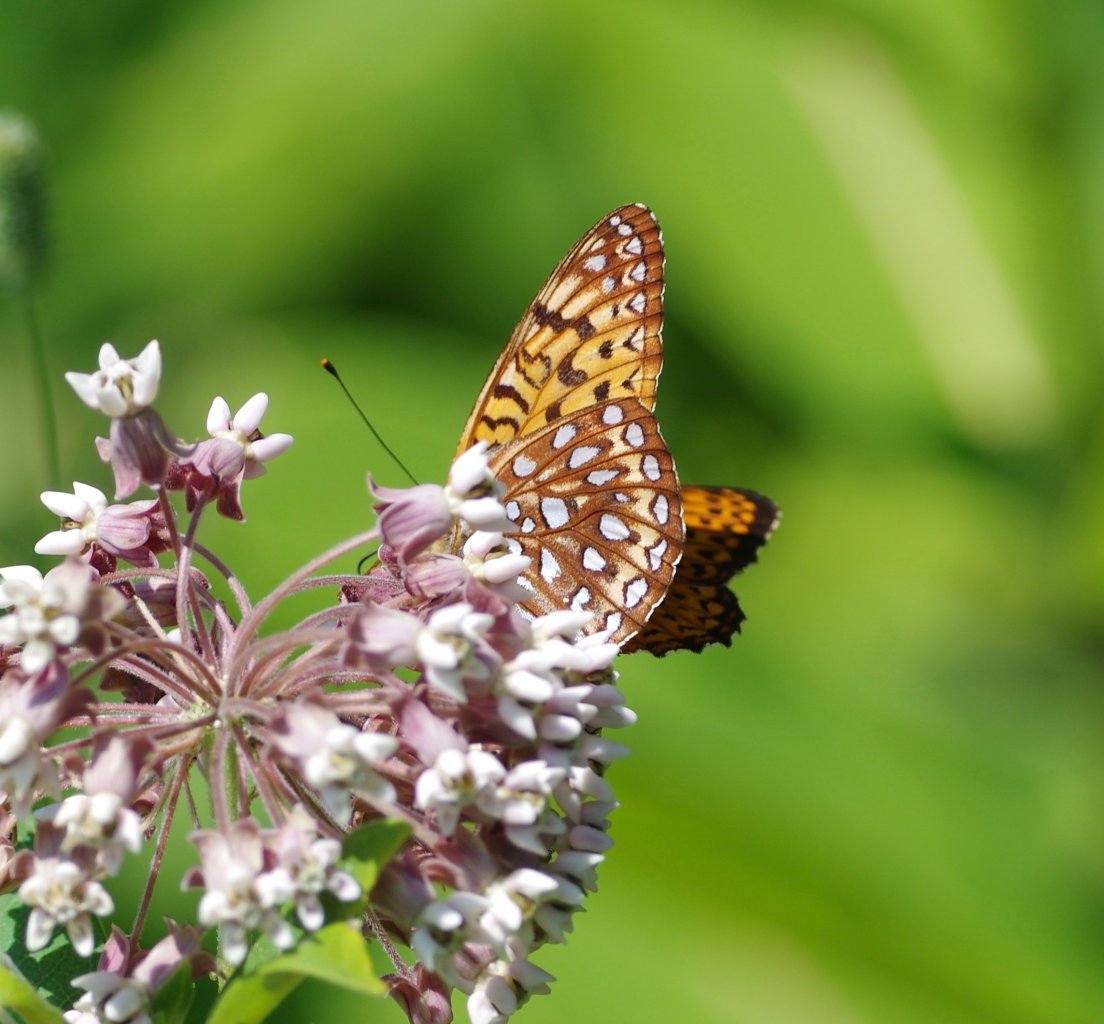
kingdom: Animalia
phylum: Arthropoda
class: Insecta
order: Lepidoptera
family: Nymphalidae
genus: Speyeria
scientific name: Speyeria atlantis
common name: Atlantis Fritillary
